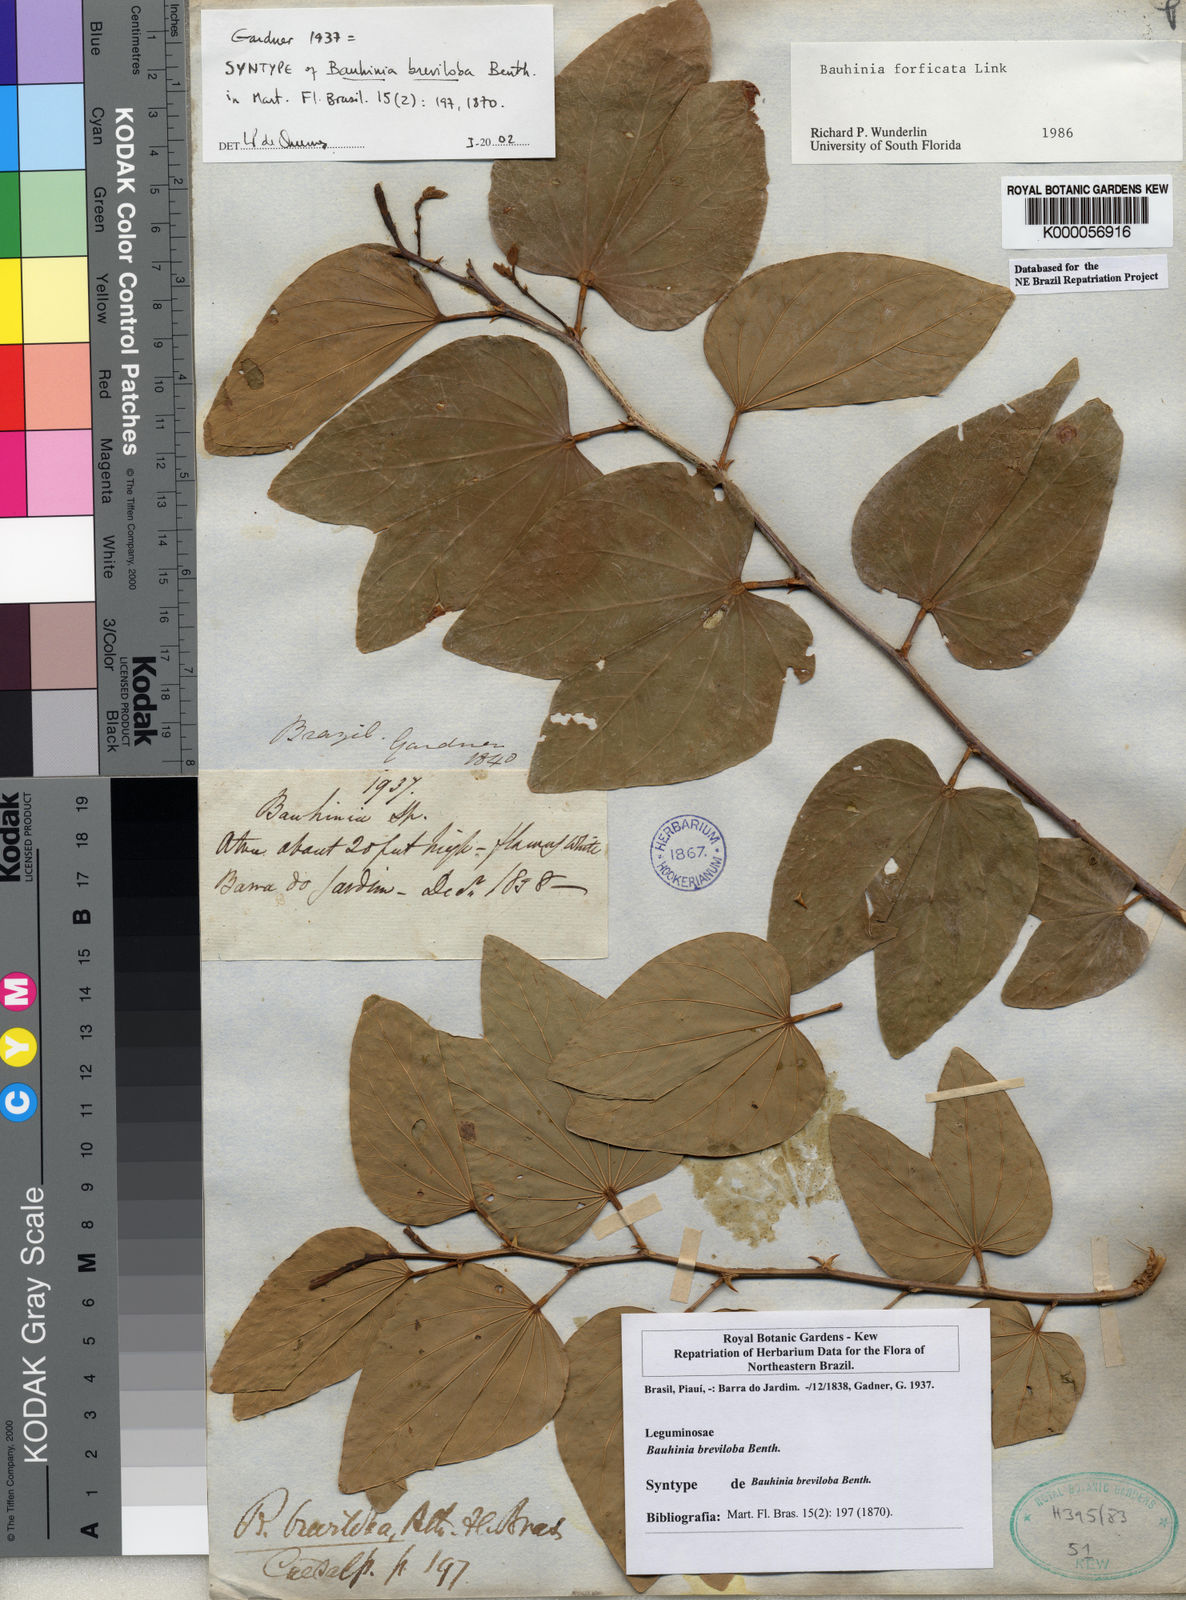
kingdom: Plantae
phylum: Tracheophyta
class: Magnoliopsida
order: Fabales
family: Fabaceae
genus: Bauhinia
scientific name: Bauhinia forficata
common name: Orchid tree
